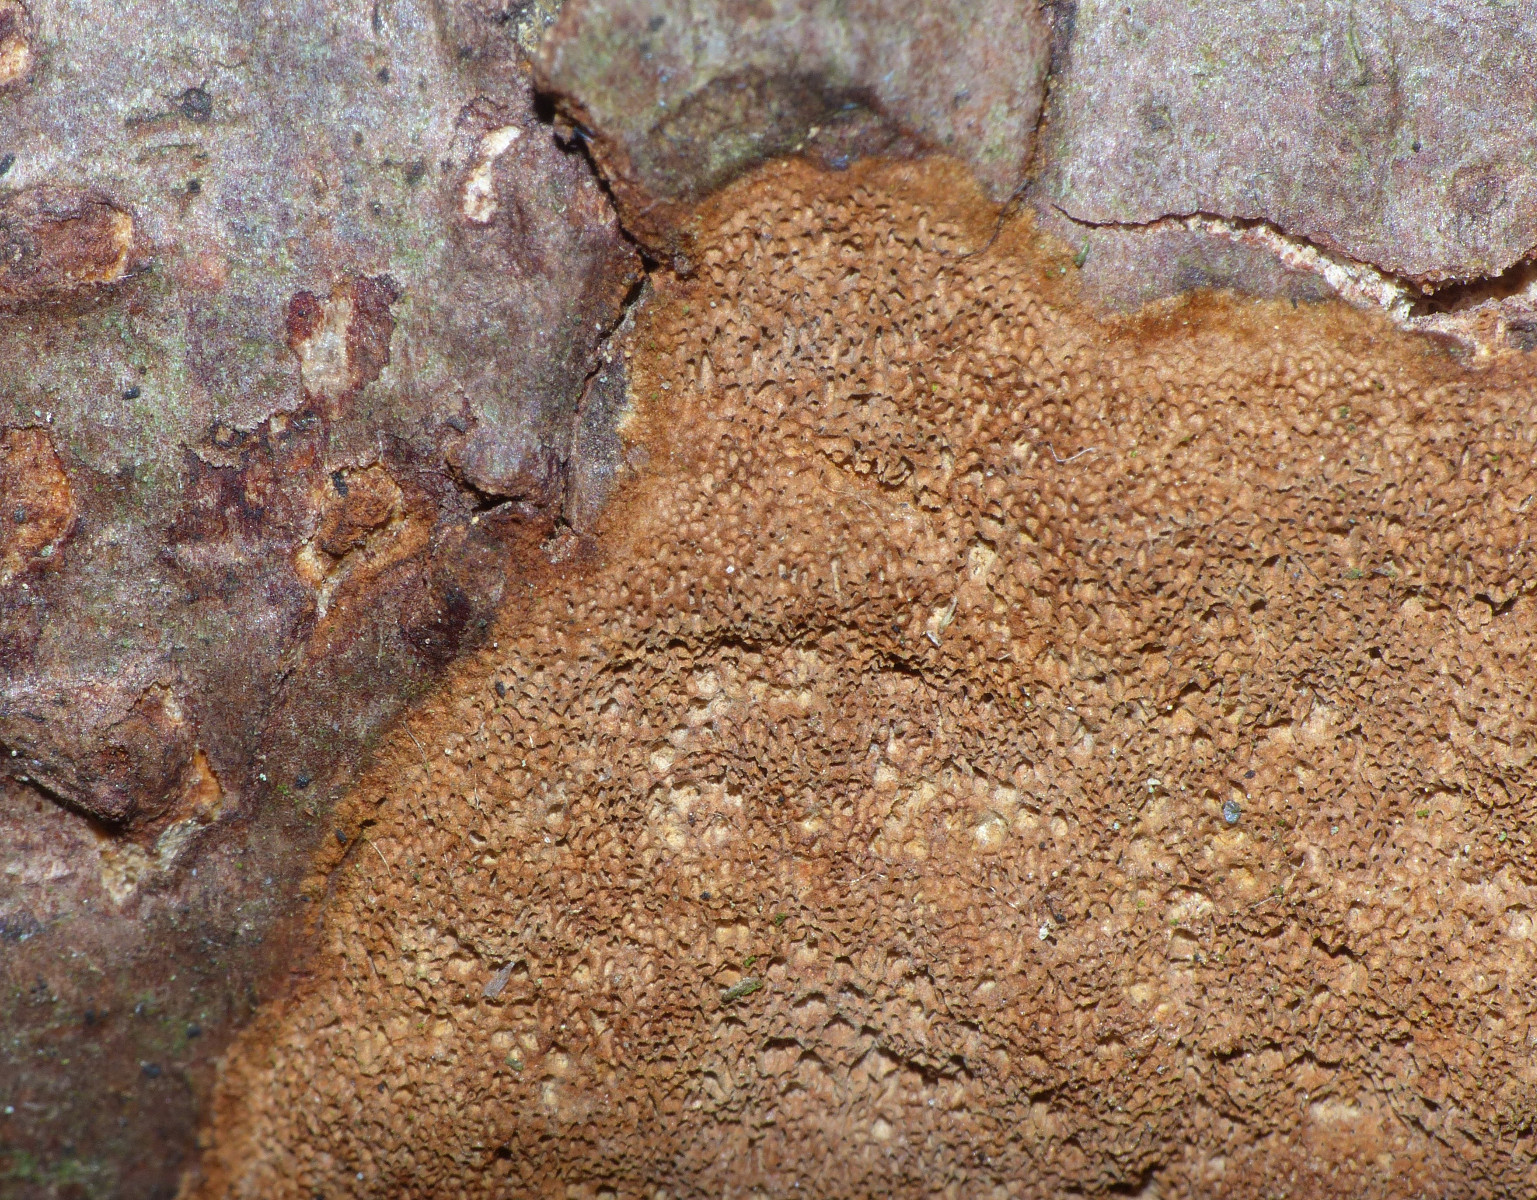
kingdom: Fungi
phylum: Basidiomycota
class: Agaricomycetes
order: Hymenochaetales
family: Hymenochaetaceae
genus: Fuscoporia
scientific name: Fuscoporia ferrea
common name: skorpe-ildporesvamp
